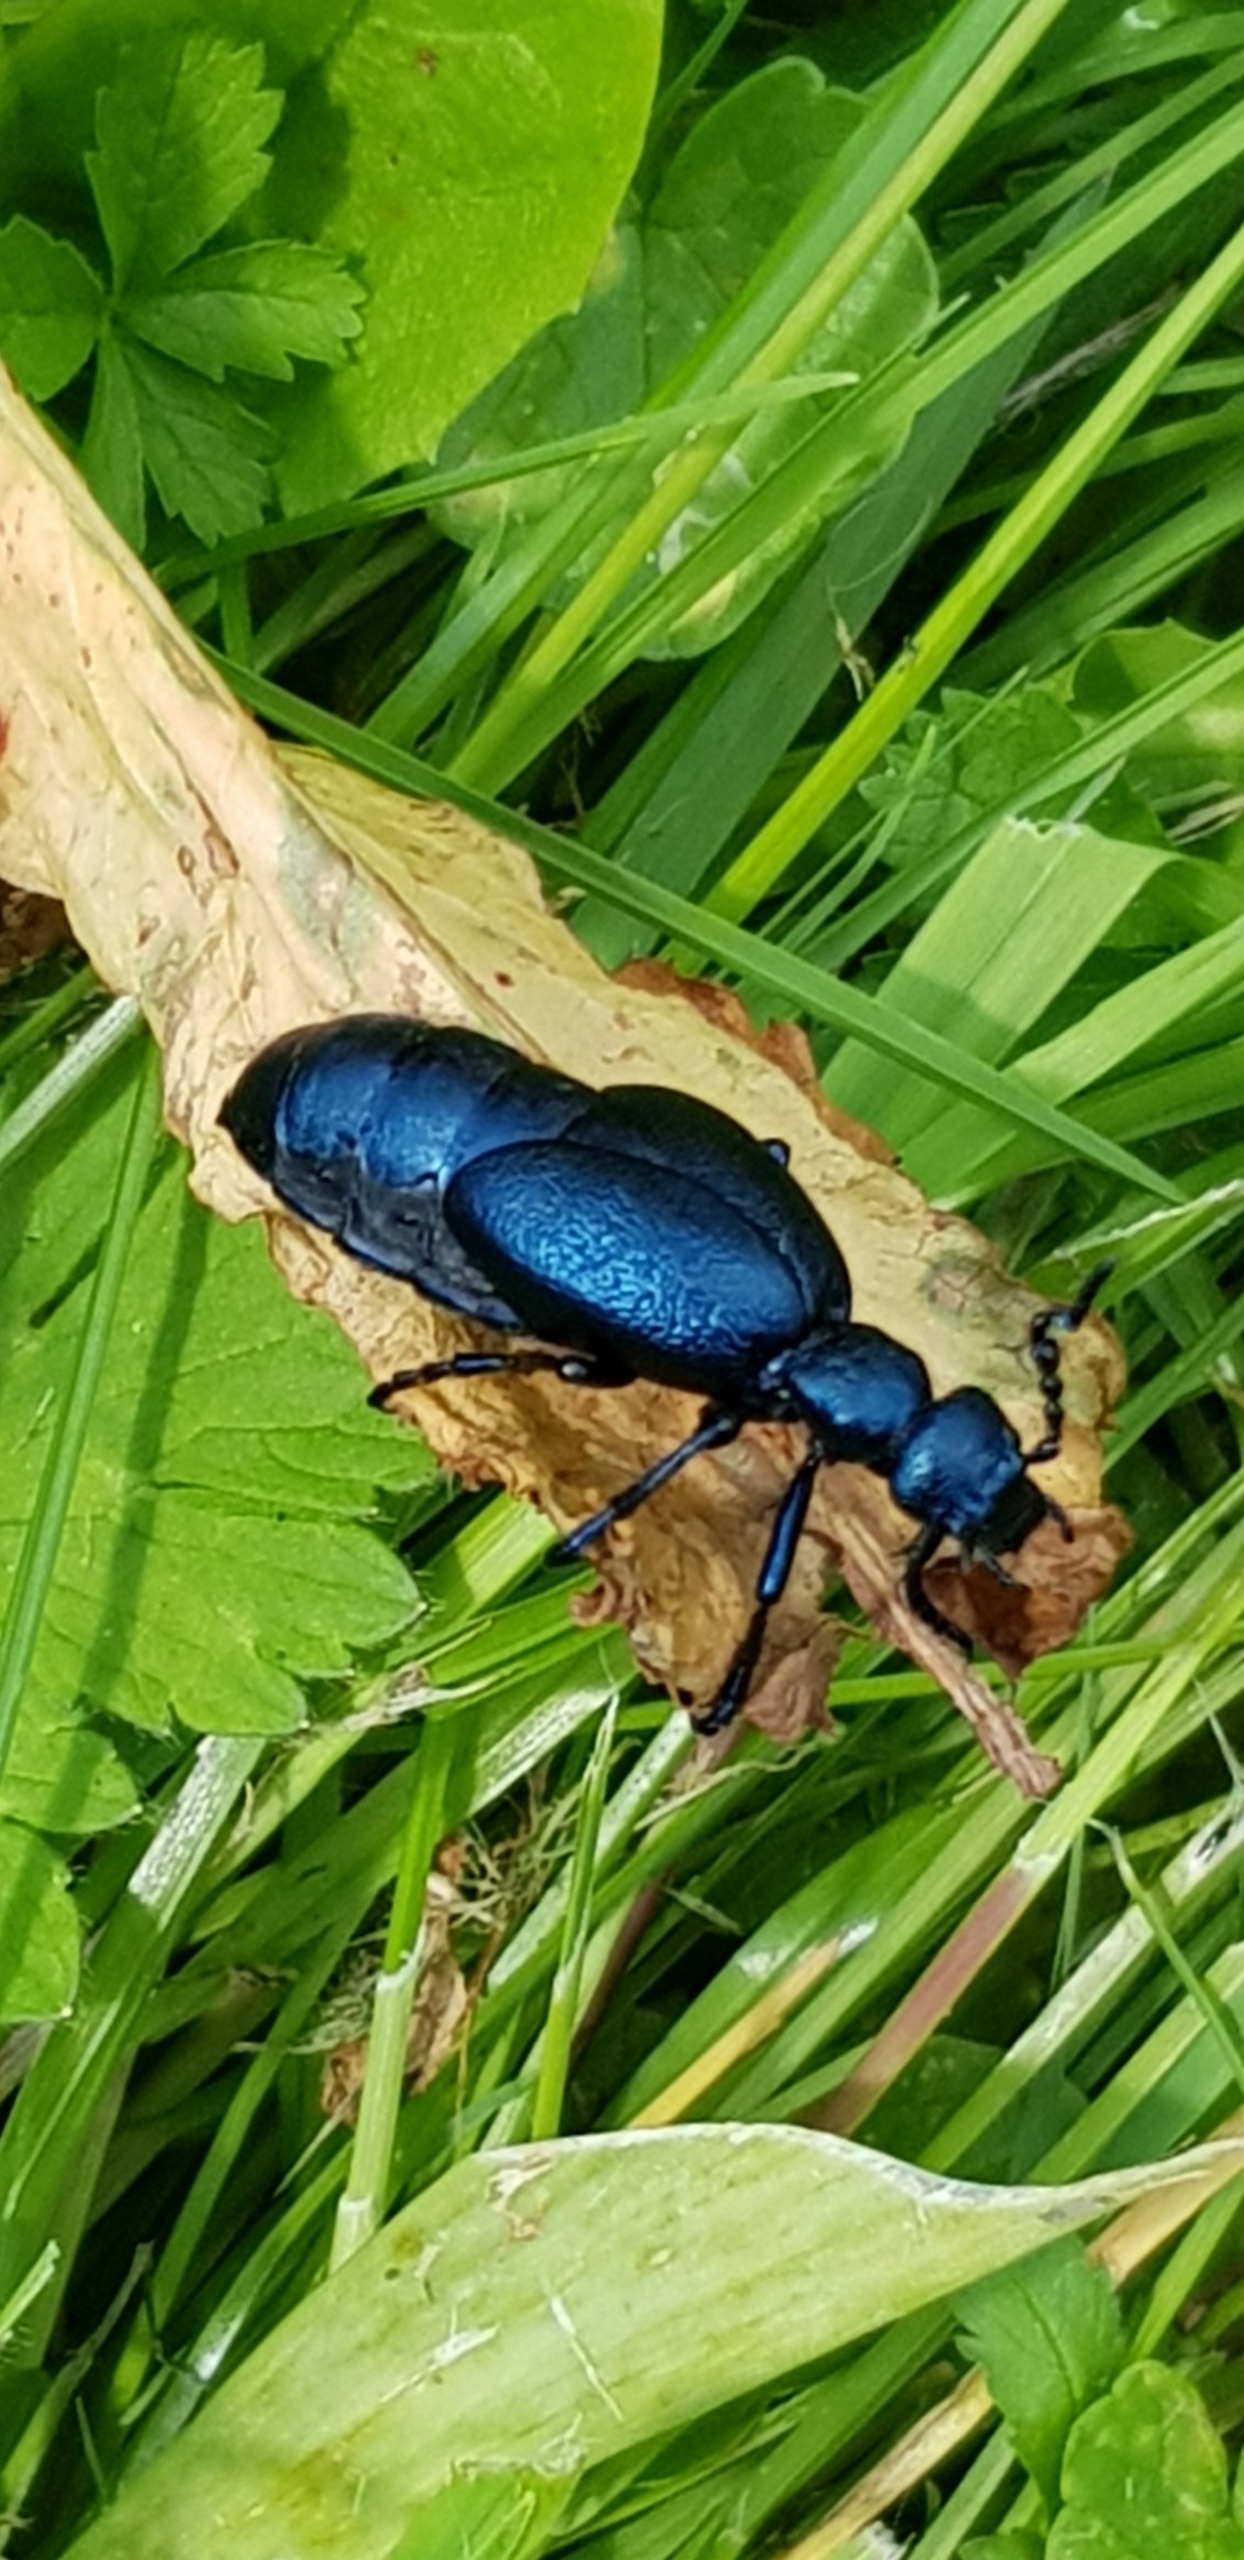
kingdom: Animalia
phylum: Arthropoda
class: Insecta
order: Coleoptera
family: Meloidae
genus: Meloe
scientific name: Meloe violaceus
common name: Blå oliebille
